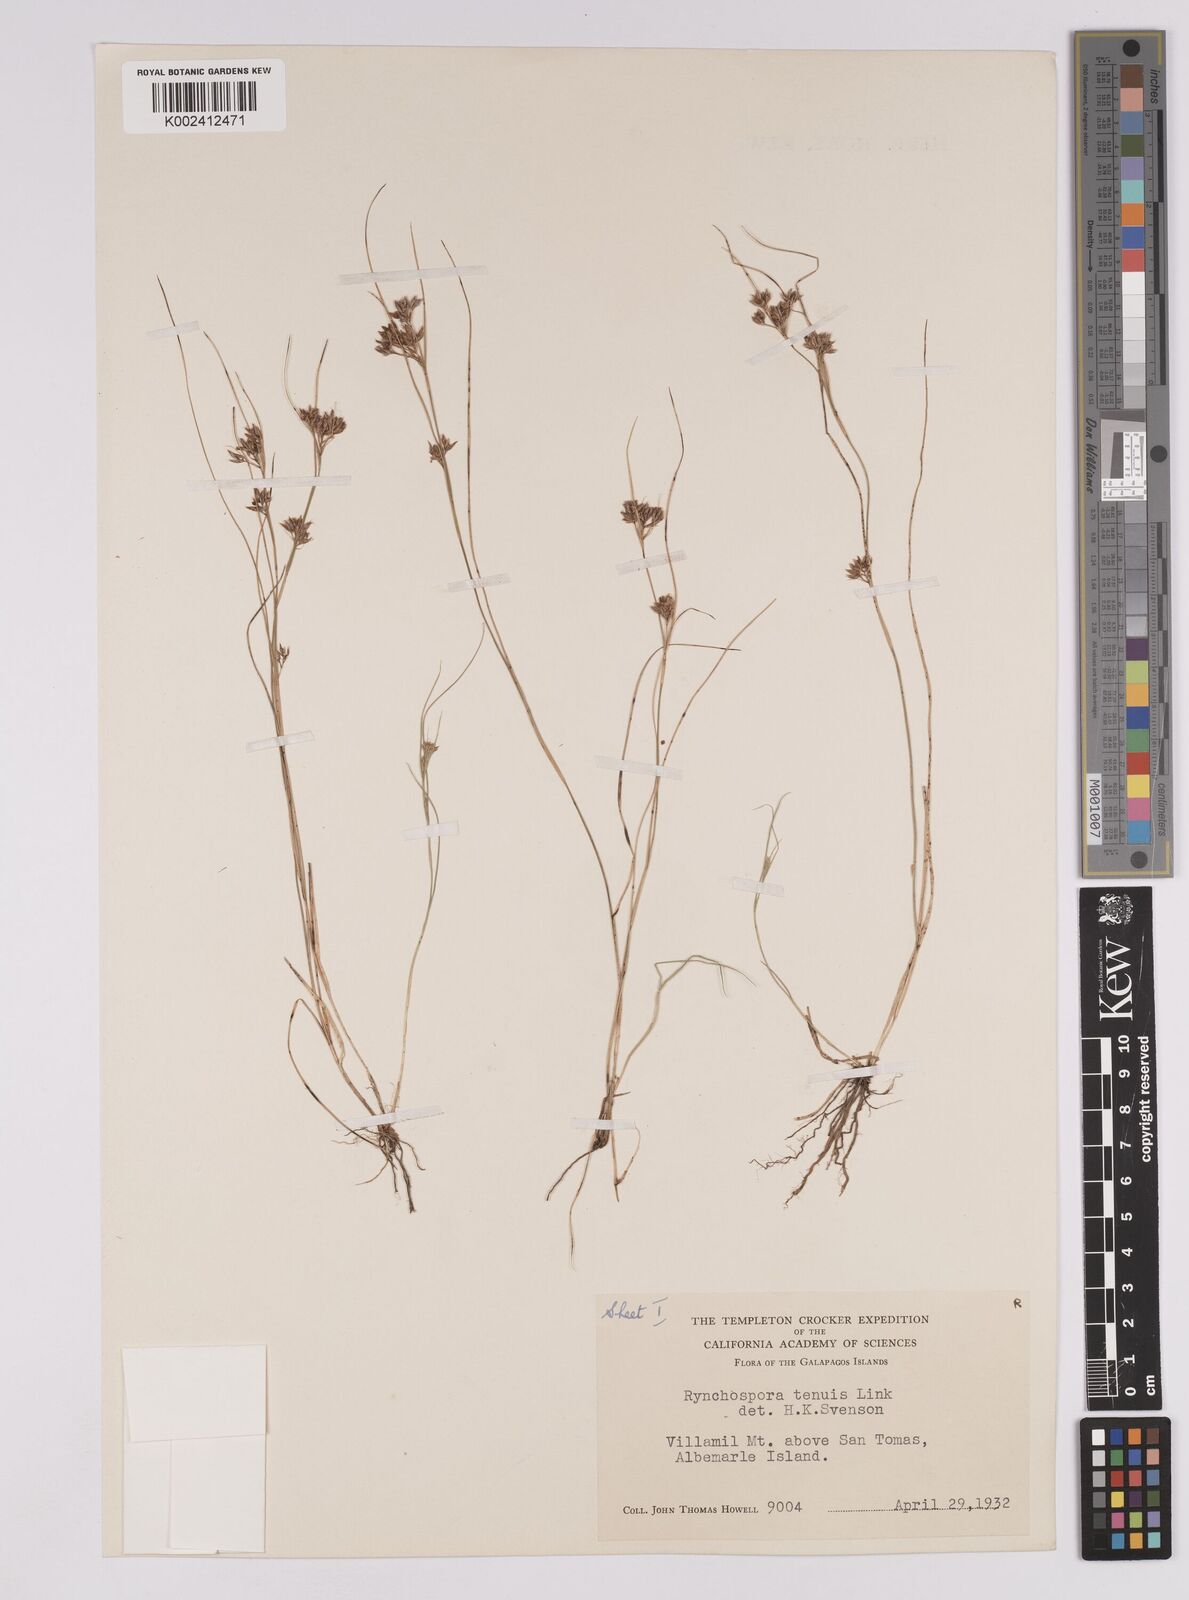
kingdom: Plantae
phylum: Tracheophyta
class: Liliopsida
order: Poales
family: Cyperaceae
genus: Rhynchospora
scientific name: Rhynchospora tenuis
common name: Quill beaksedge
